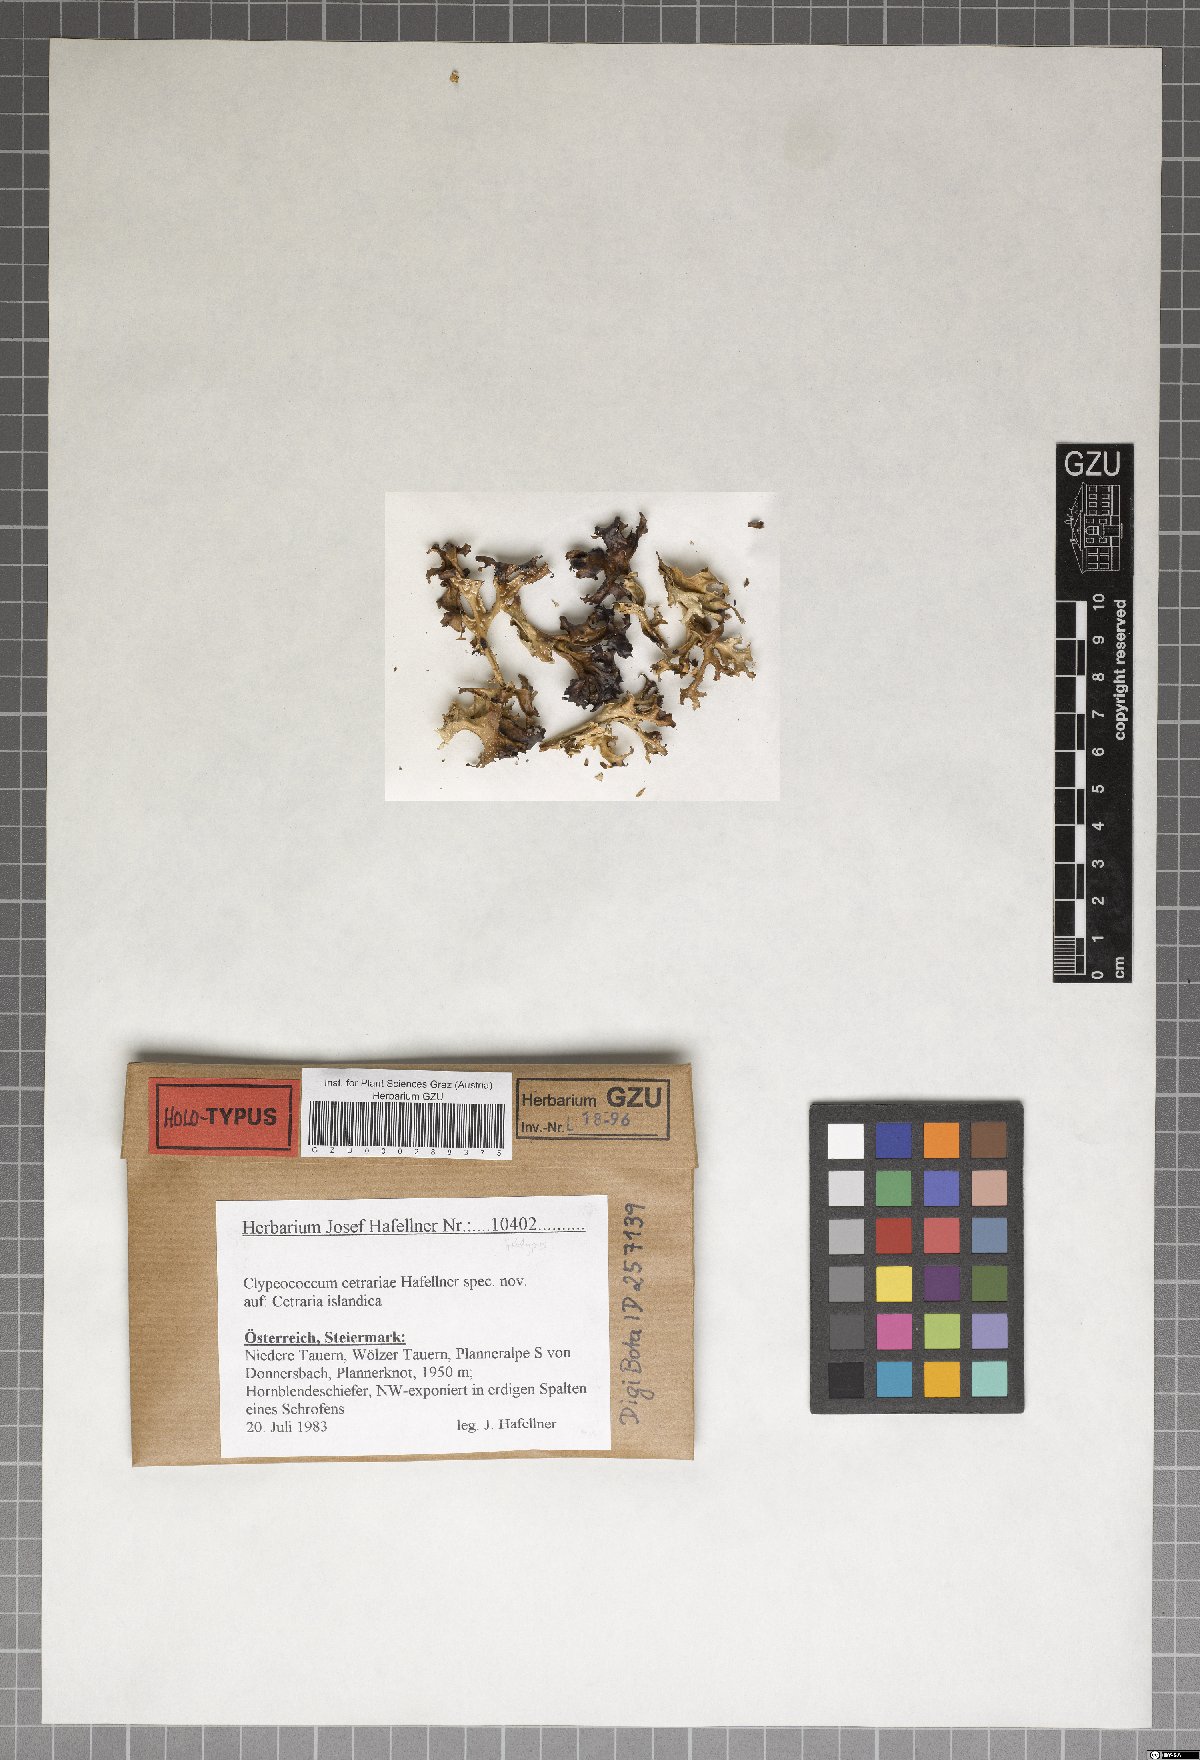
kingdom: Fungi
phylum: Ascomycota
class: Dothideomycetes
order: Pleosporales
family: Dacampiaceae
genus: Clypeococcum
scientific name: Clypeococcum cetrariae
